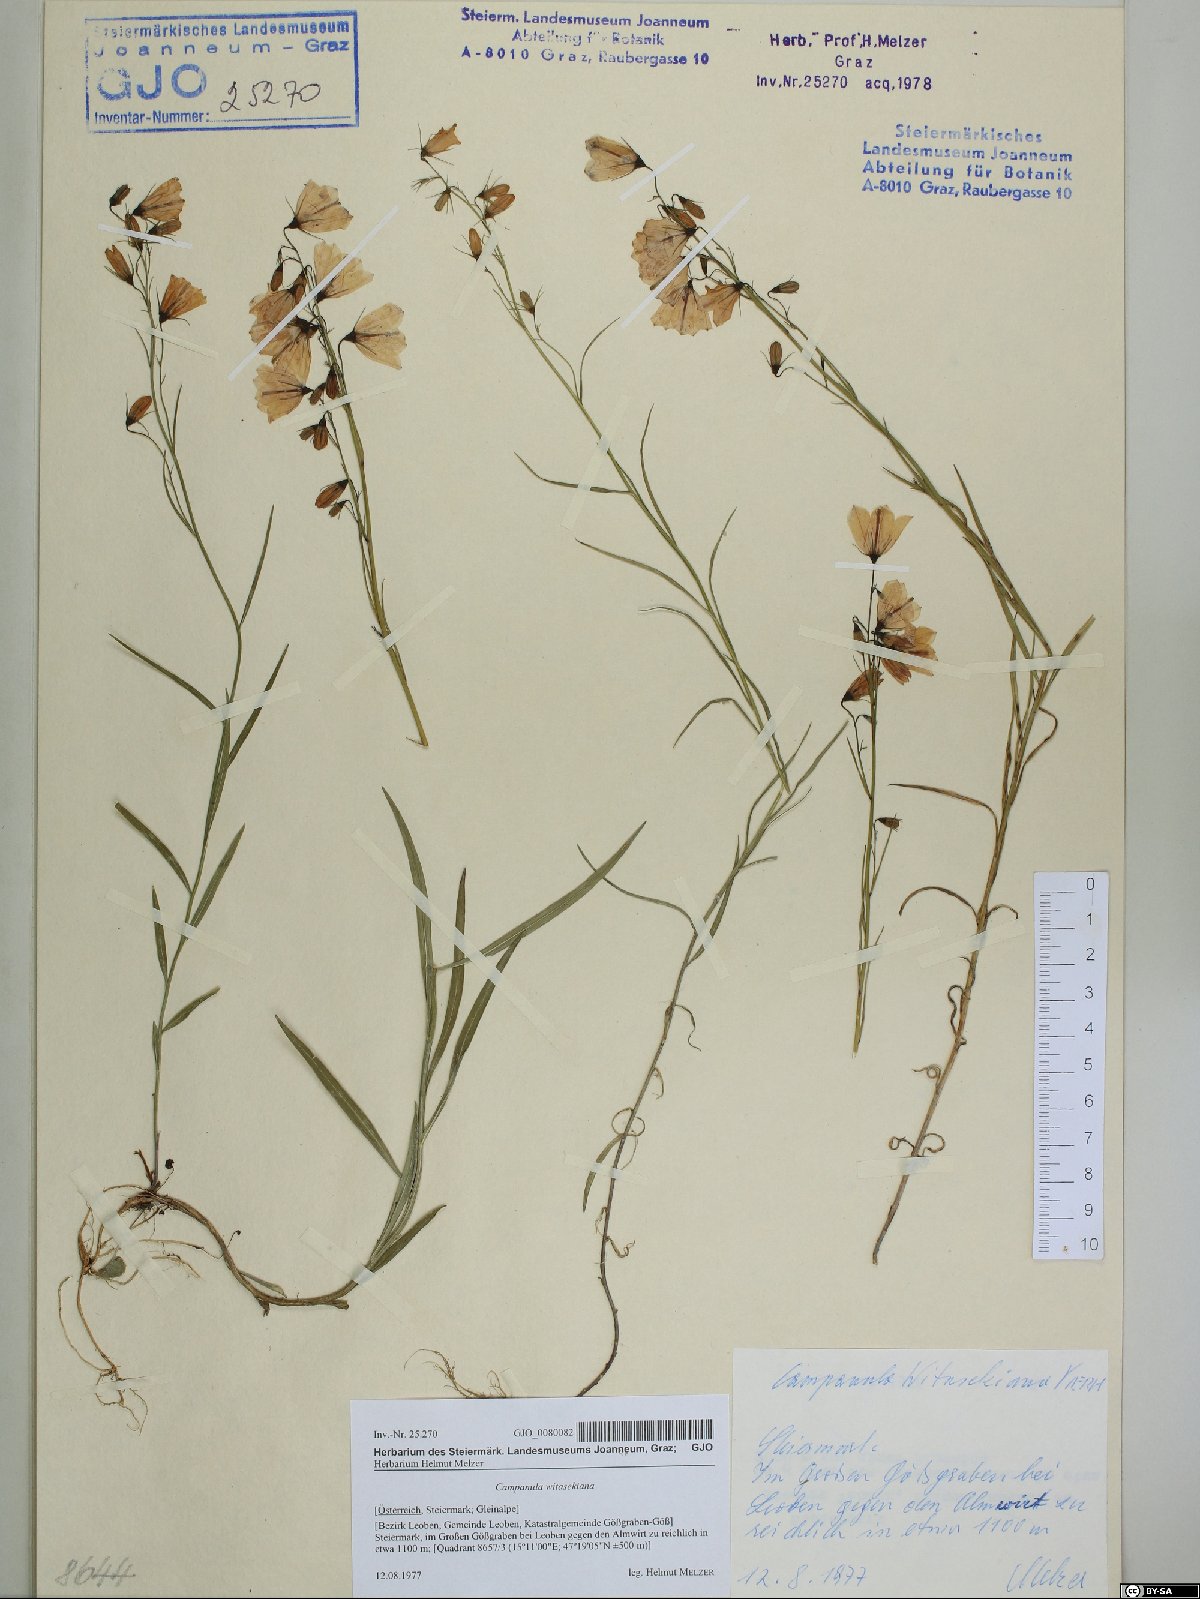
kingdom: Plantae
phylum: Tracheophyta
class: Magnoliopsida
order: Asterales
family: Campanulaceae
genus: Campanula
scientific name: Campanula witasekiana
